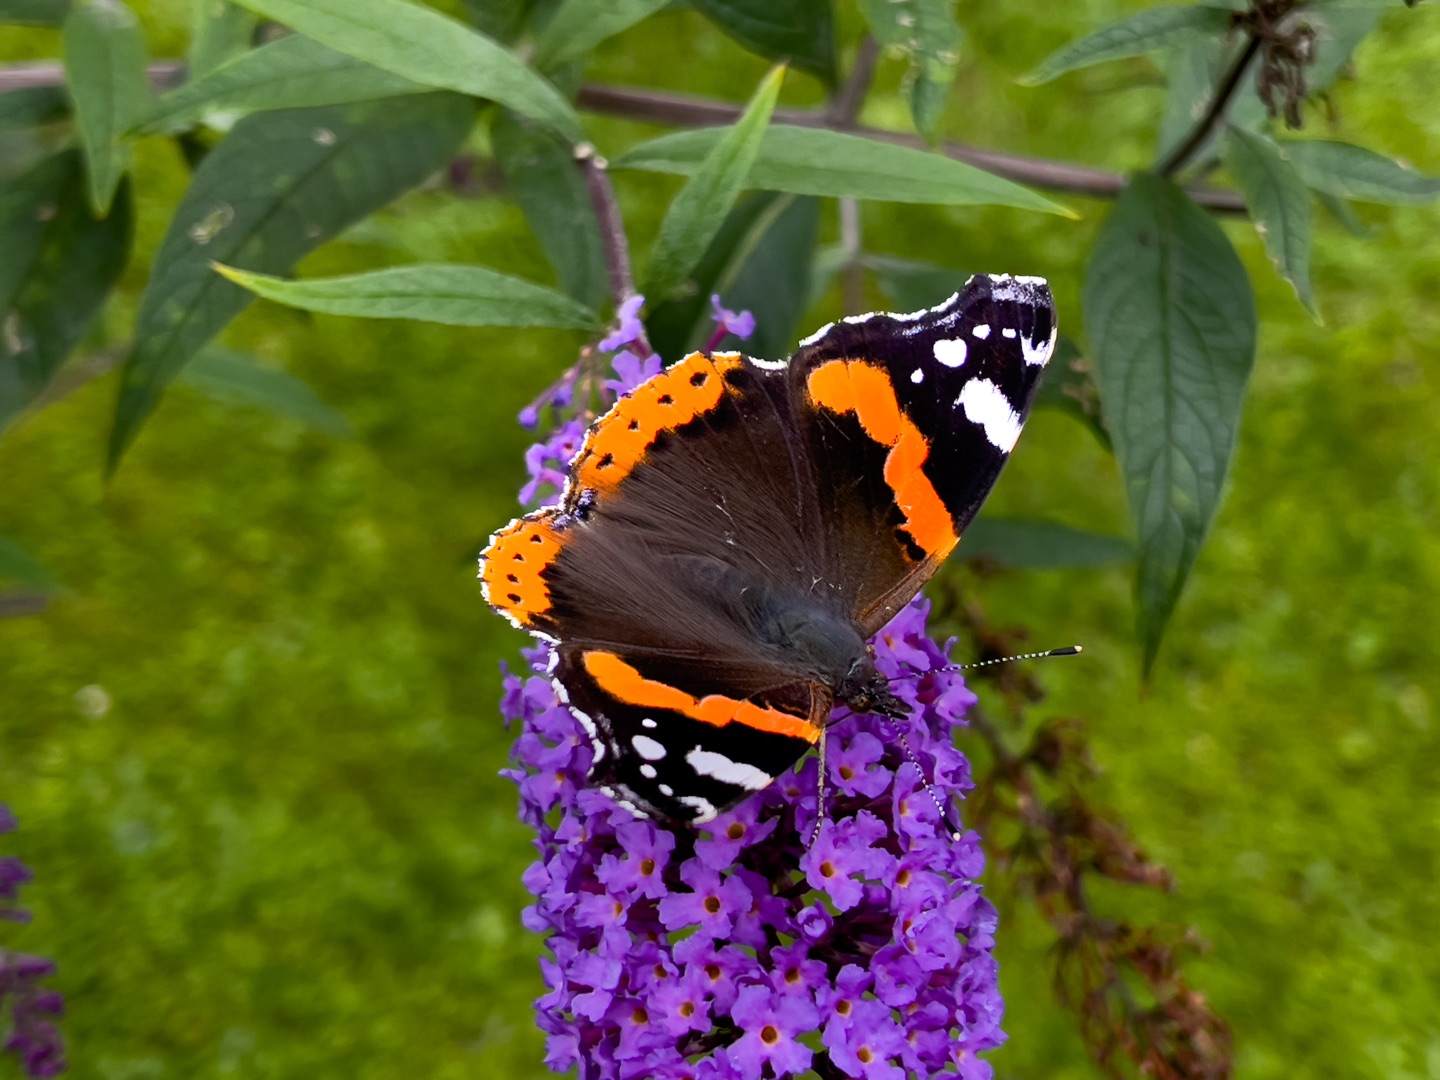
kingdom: Animalia
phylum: Arthropoda
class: Insecta
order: Lepidoptera
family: Nymphalidae
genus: Vanessa
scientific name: Vanessa atalanta
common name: Admiral
